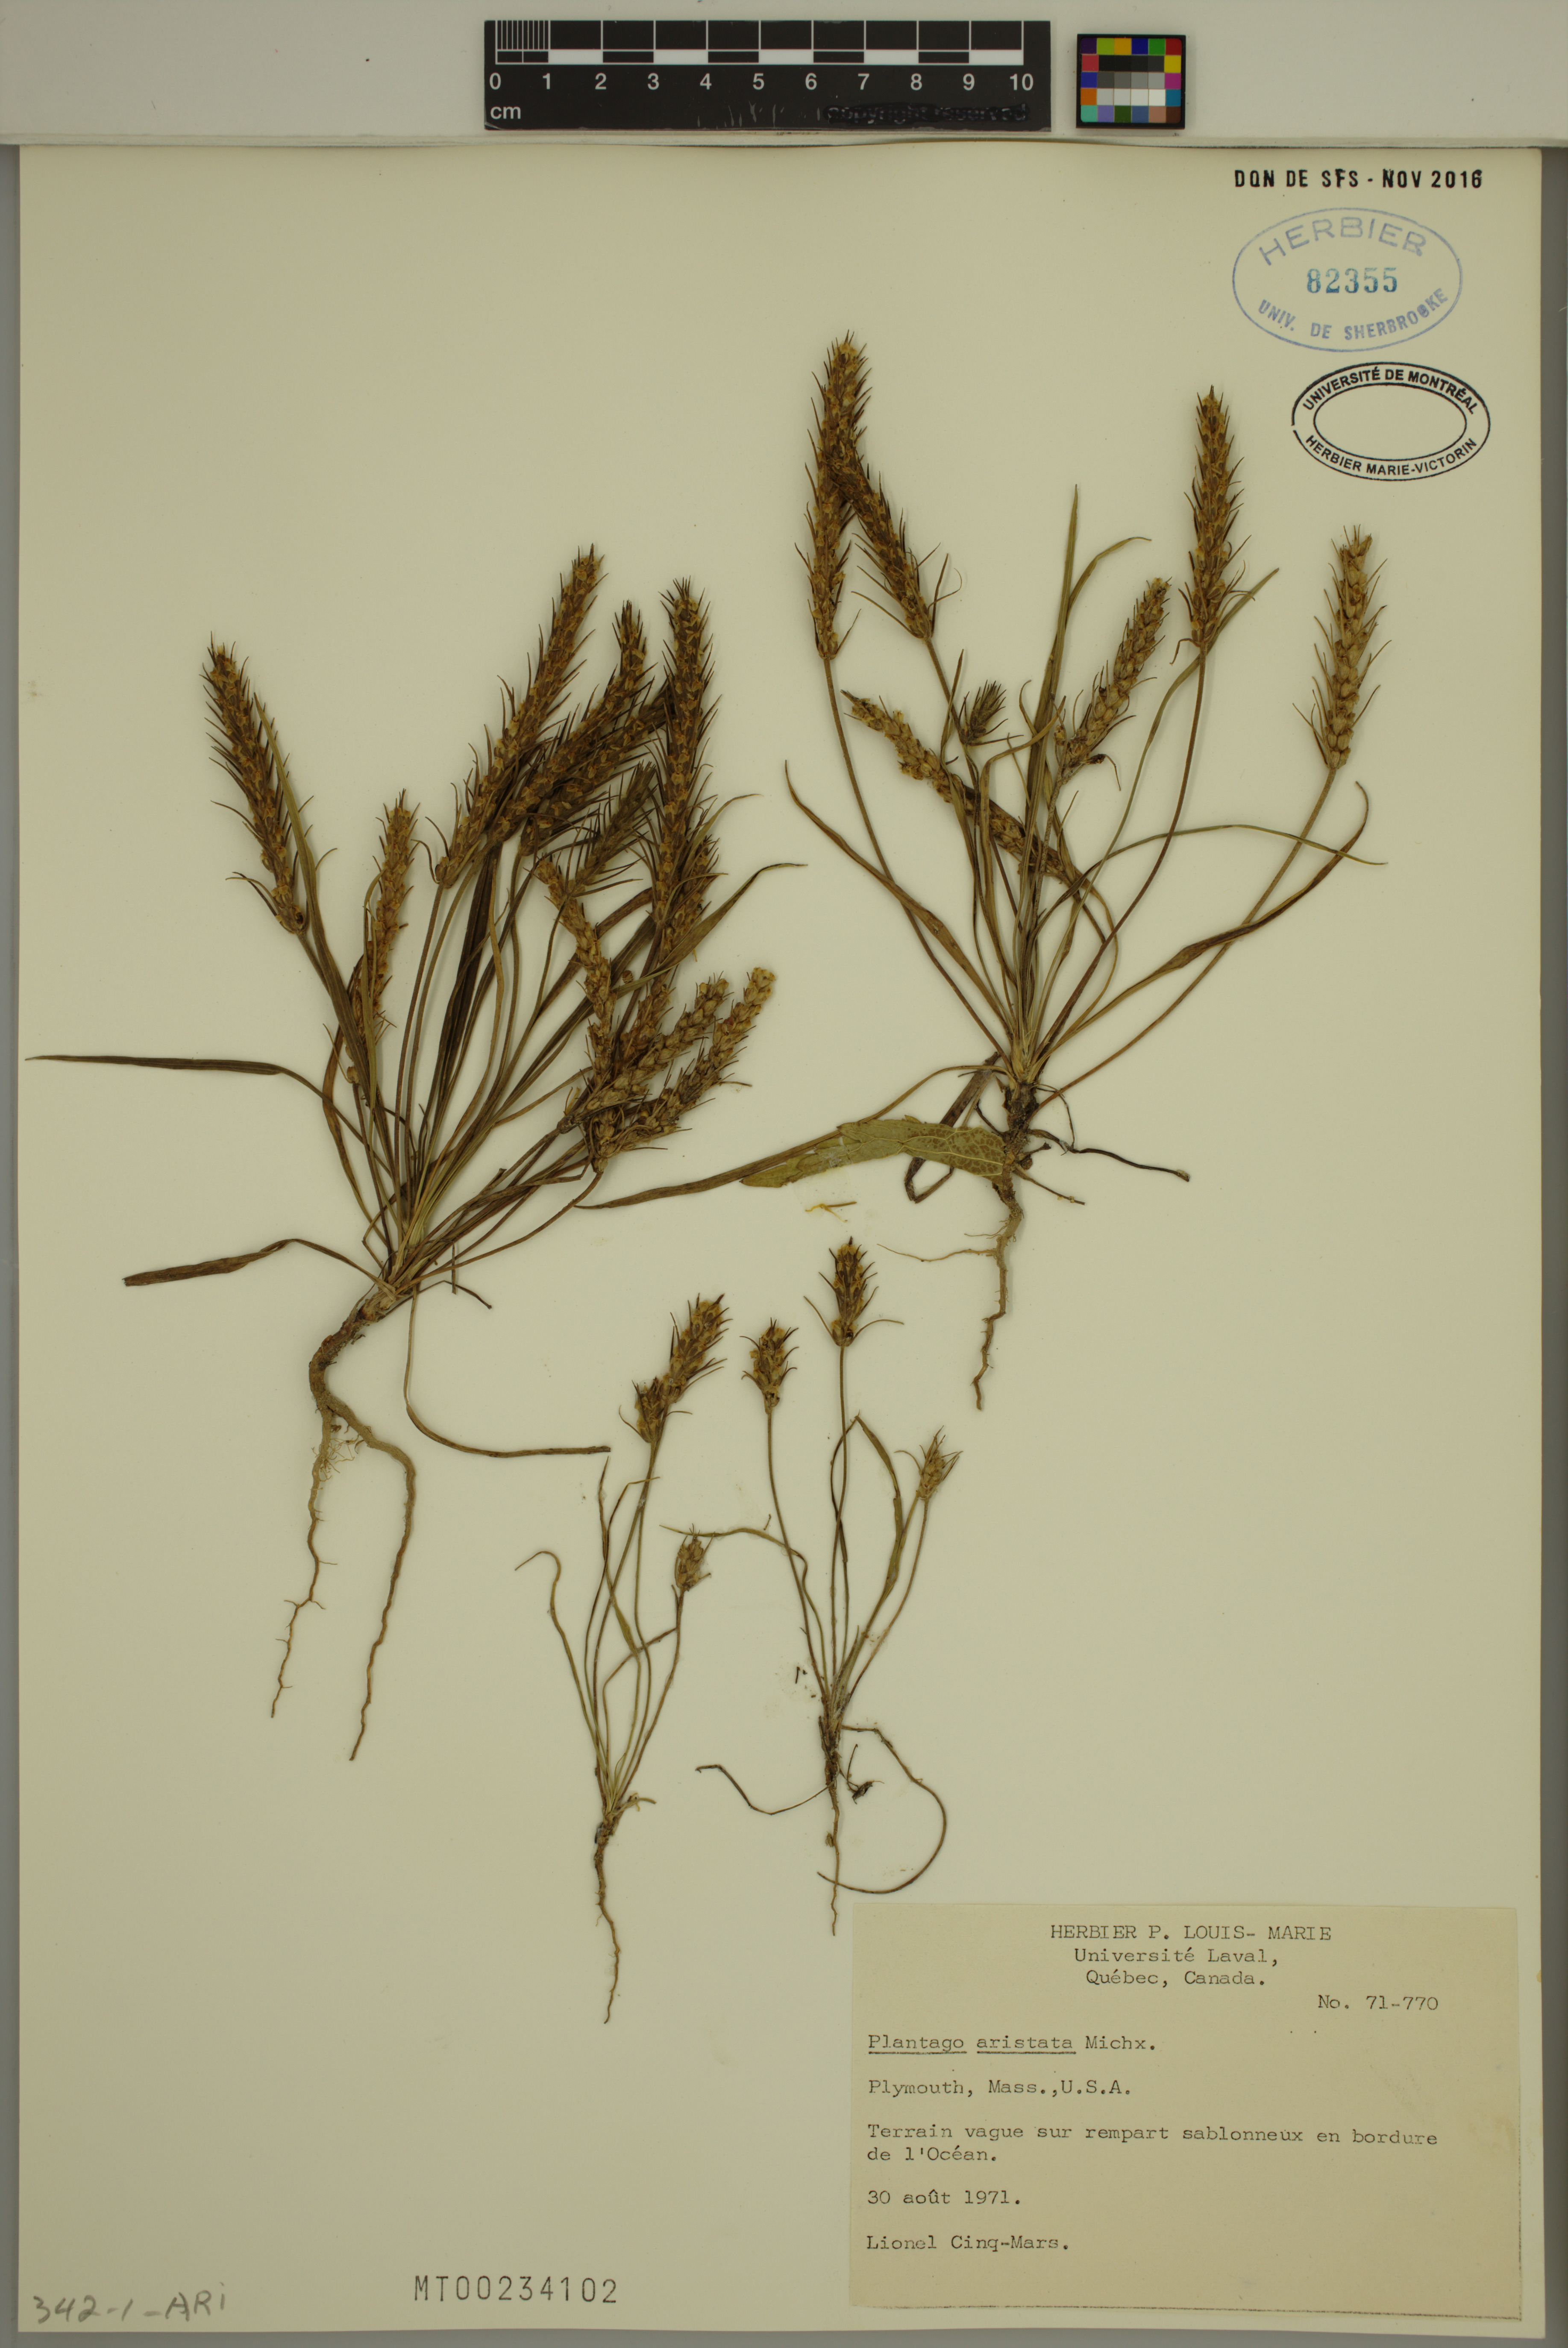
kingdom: Plantae
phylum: Tracheophyta
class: Magnoliopsida
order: Lamiales
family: Plantaginaceae
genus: Plantago
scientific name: Plantago aristata
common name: Bracted plantain
